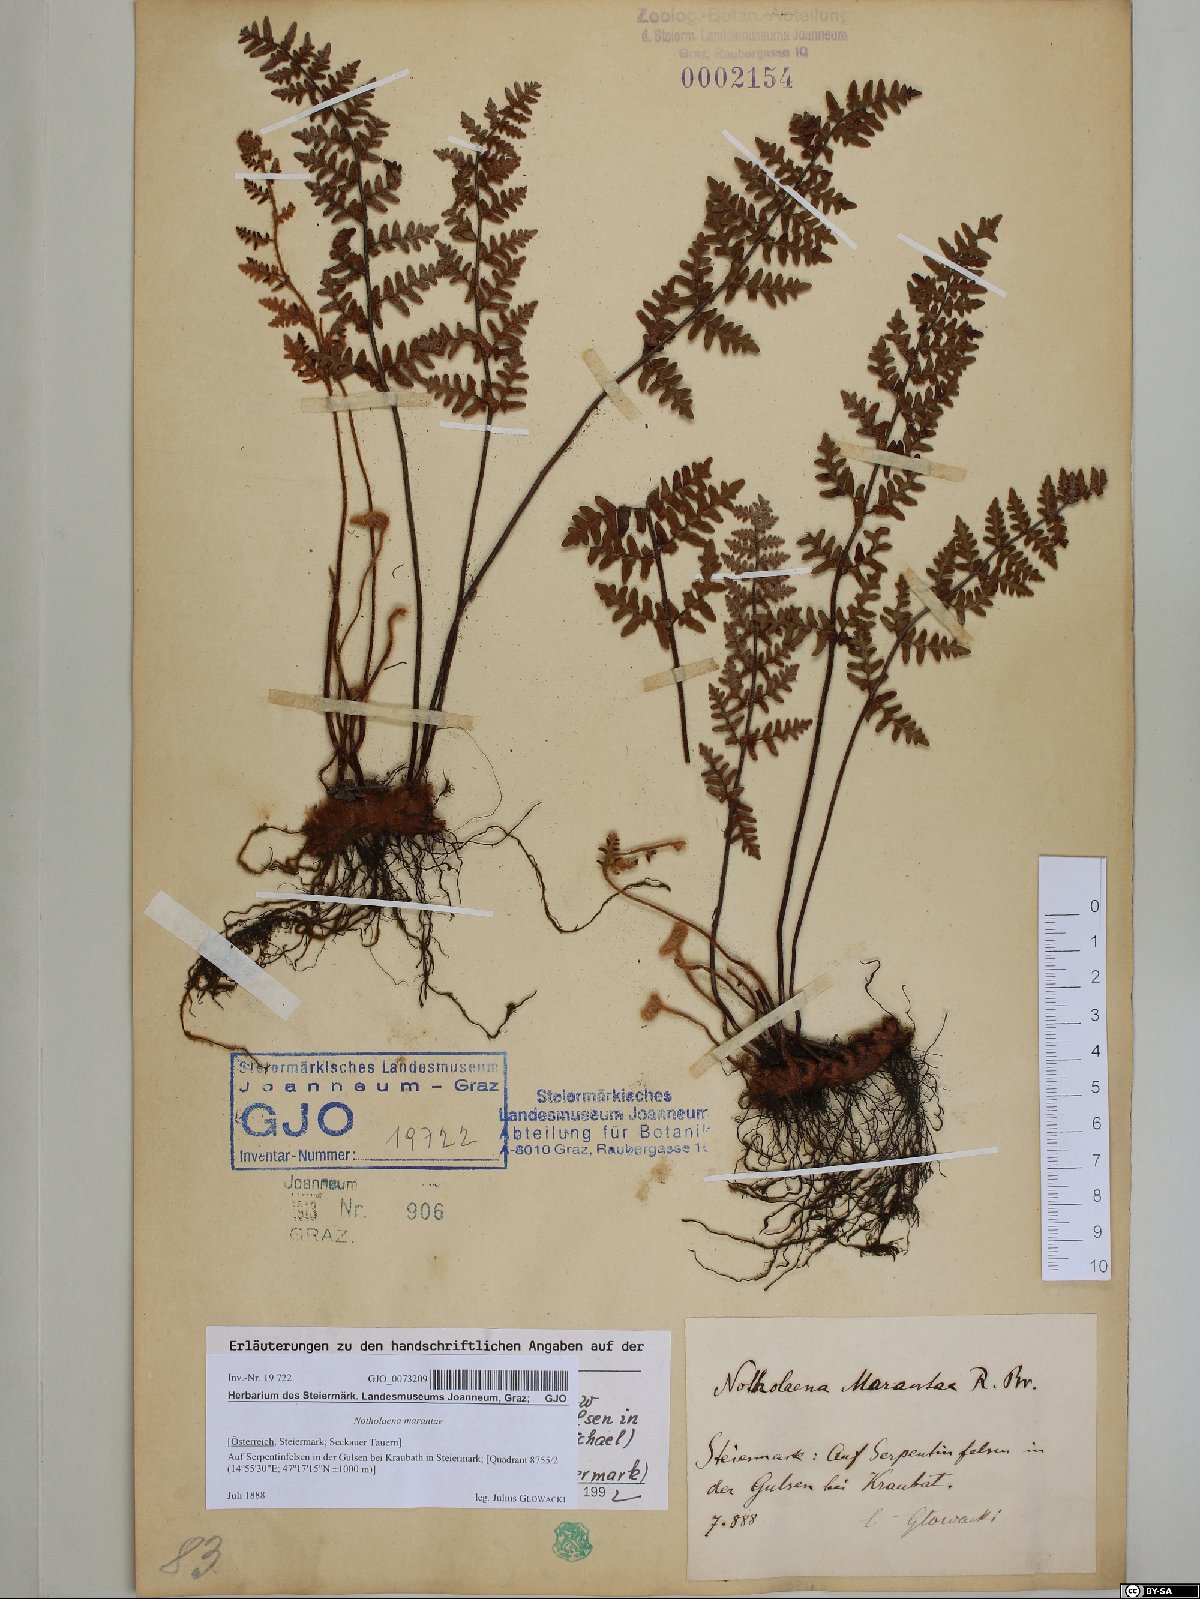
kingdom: Plantae
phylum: Tracheophyta
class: Polypodiopsida
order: Polypodiales
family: Pteridaceae
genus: Paragymnopteris
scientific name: Paragymnopteris marantae
